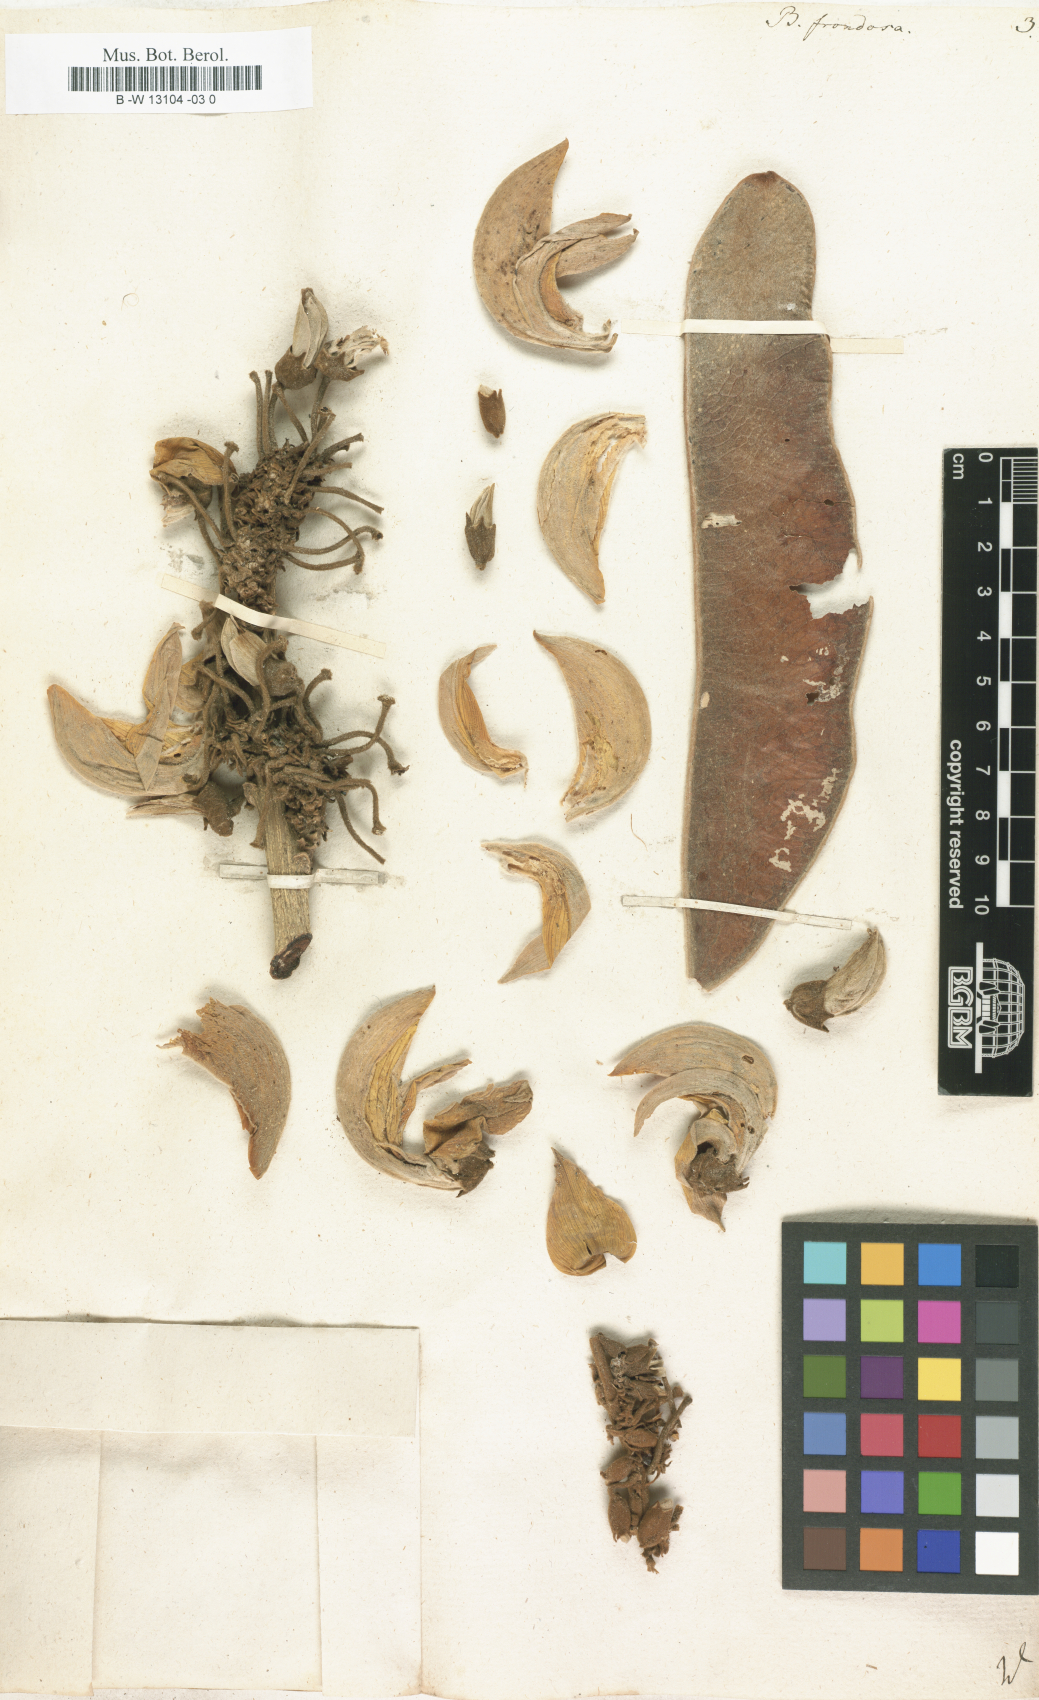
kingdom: Plantae
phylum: Tracheophyta
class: Magnoliopsida
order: Fabales
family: Fabaceae
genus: Butea
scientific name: Butea monosperma
